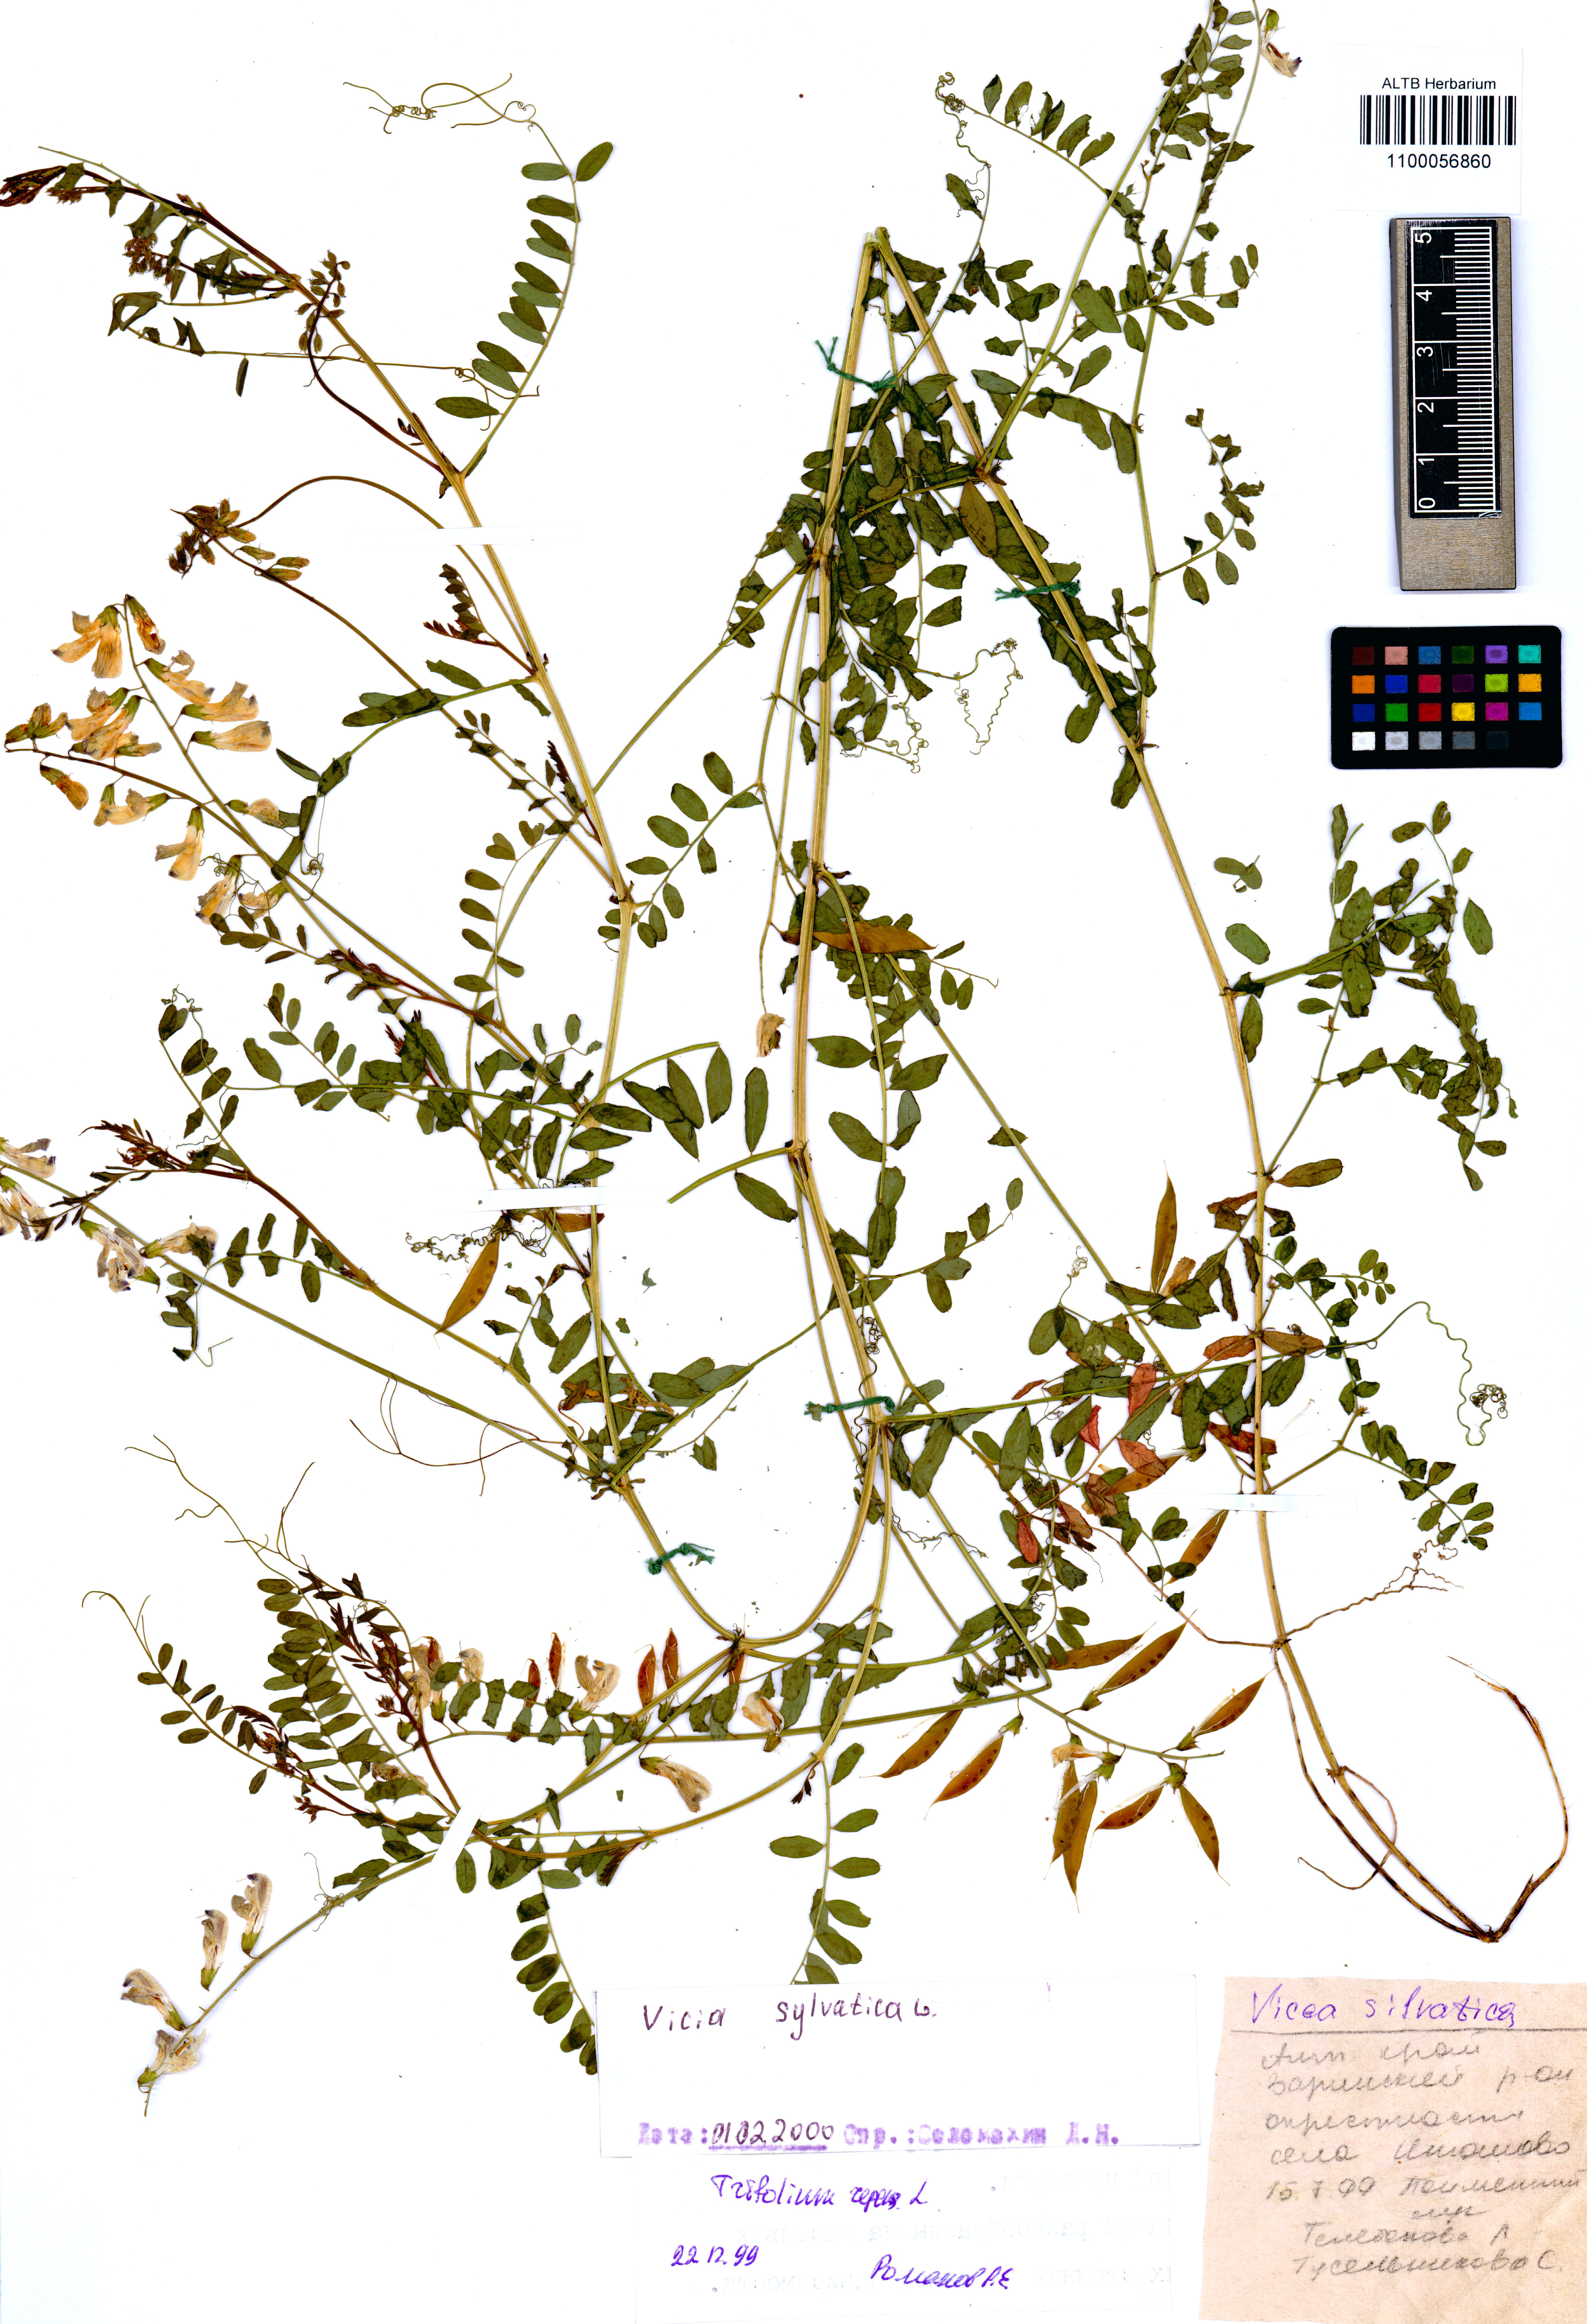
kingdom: Plantae
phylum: Tracheophyta
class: Magnoliopsida
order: Fabales
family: Fabaceae
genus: Vicia
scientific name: Vicia sylvatica
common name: Wood vetch
